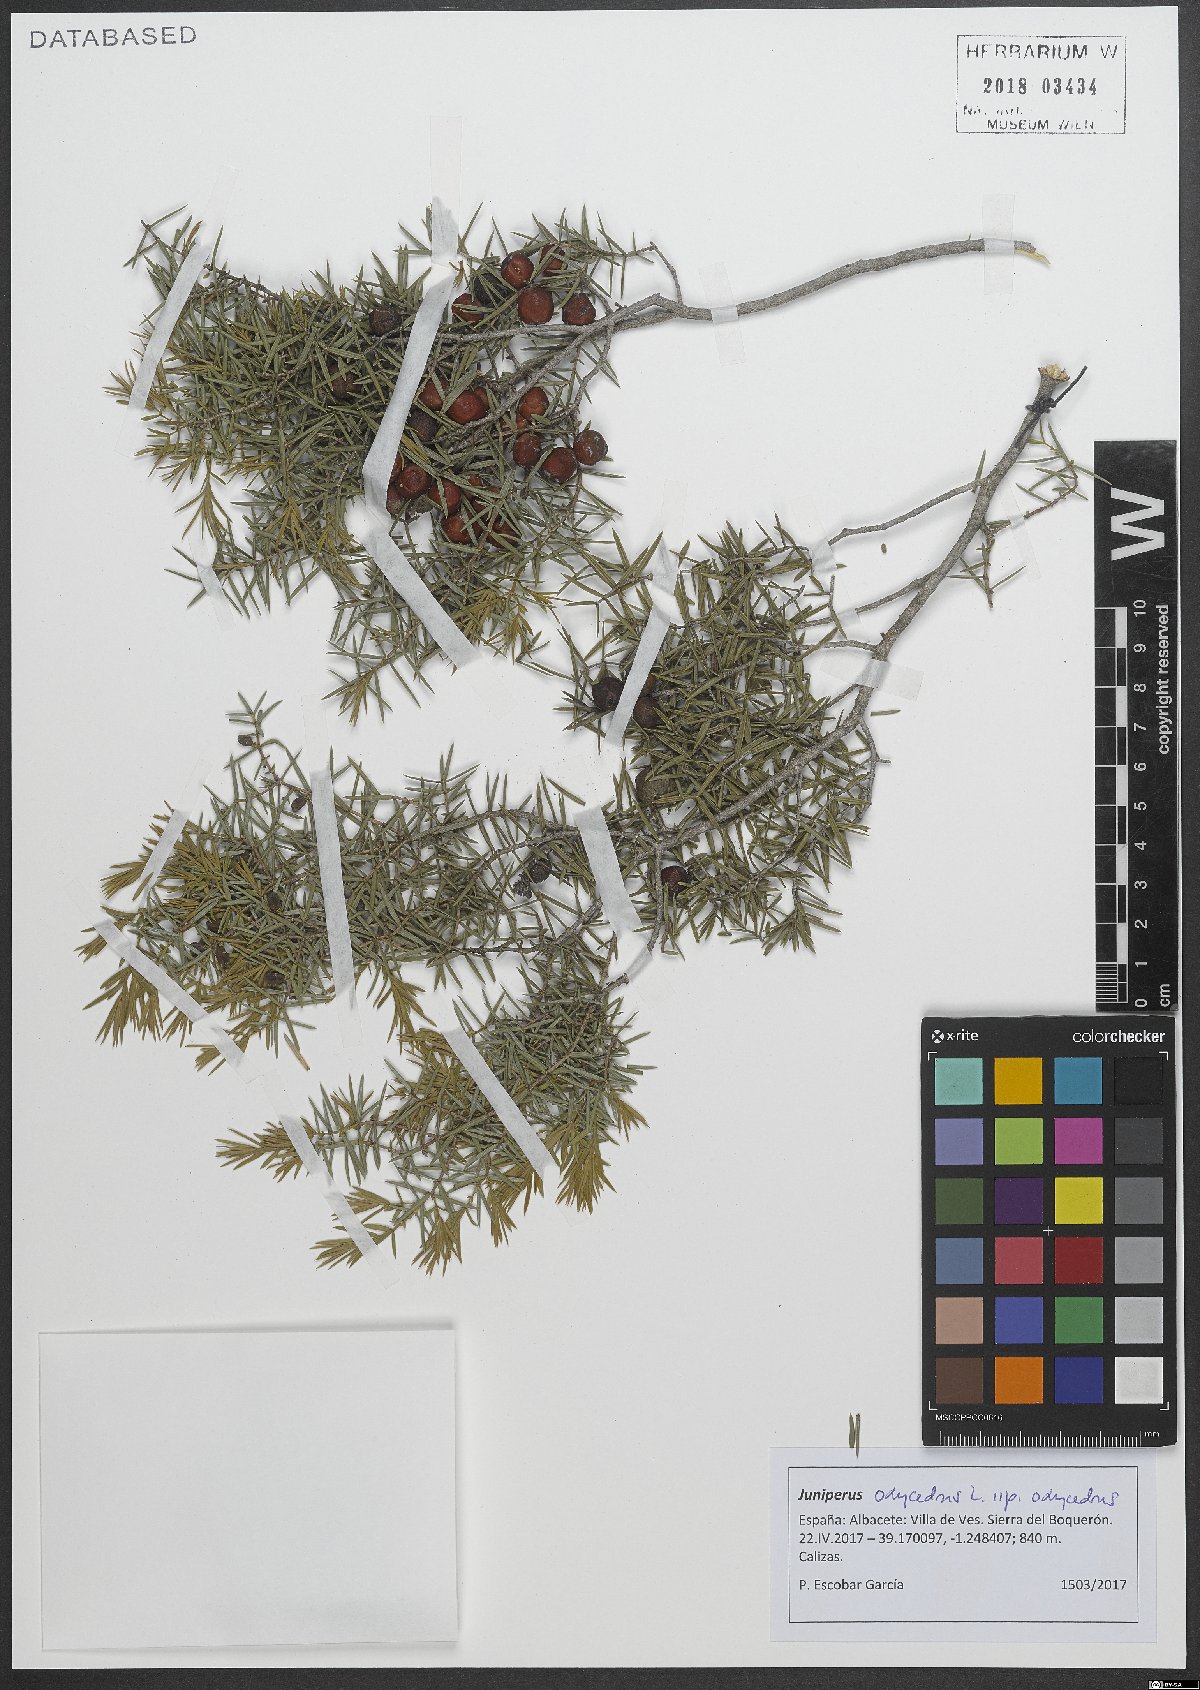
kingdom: Plantae
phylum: Tracheophyta
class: Pinopsida
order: Pinales
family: Cupressaceae
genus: Juniperus
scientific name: Juniperus oxycedrus
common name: Prickly juniper
